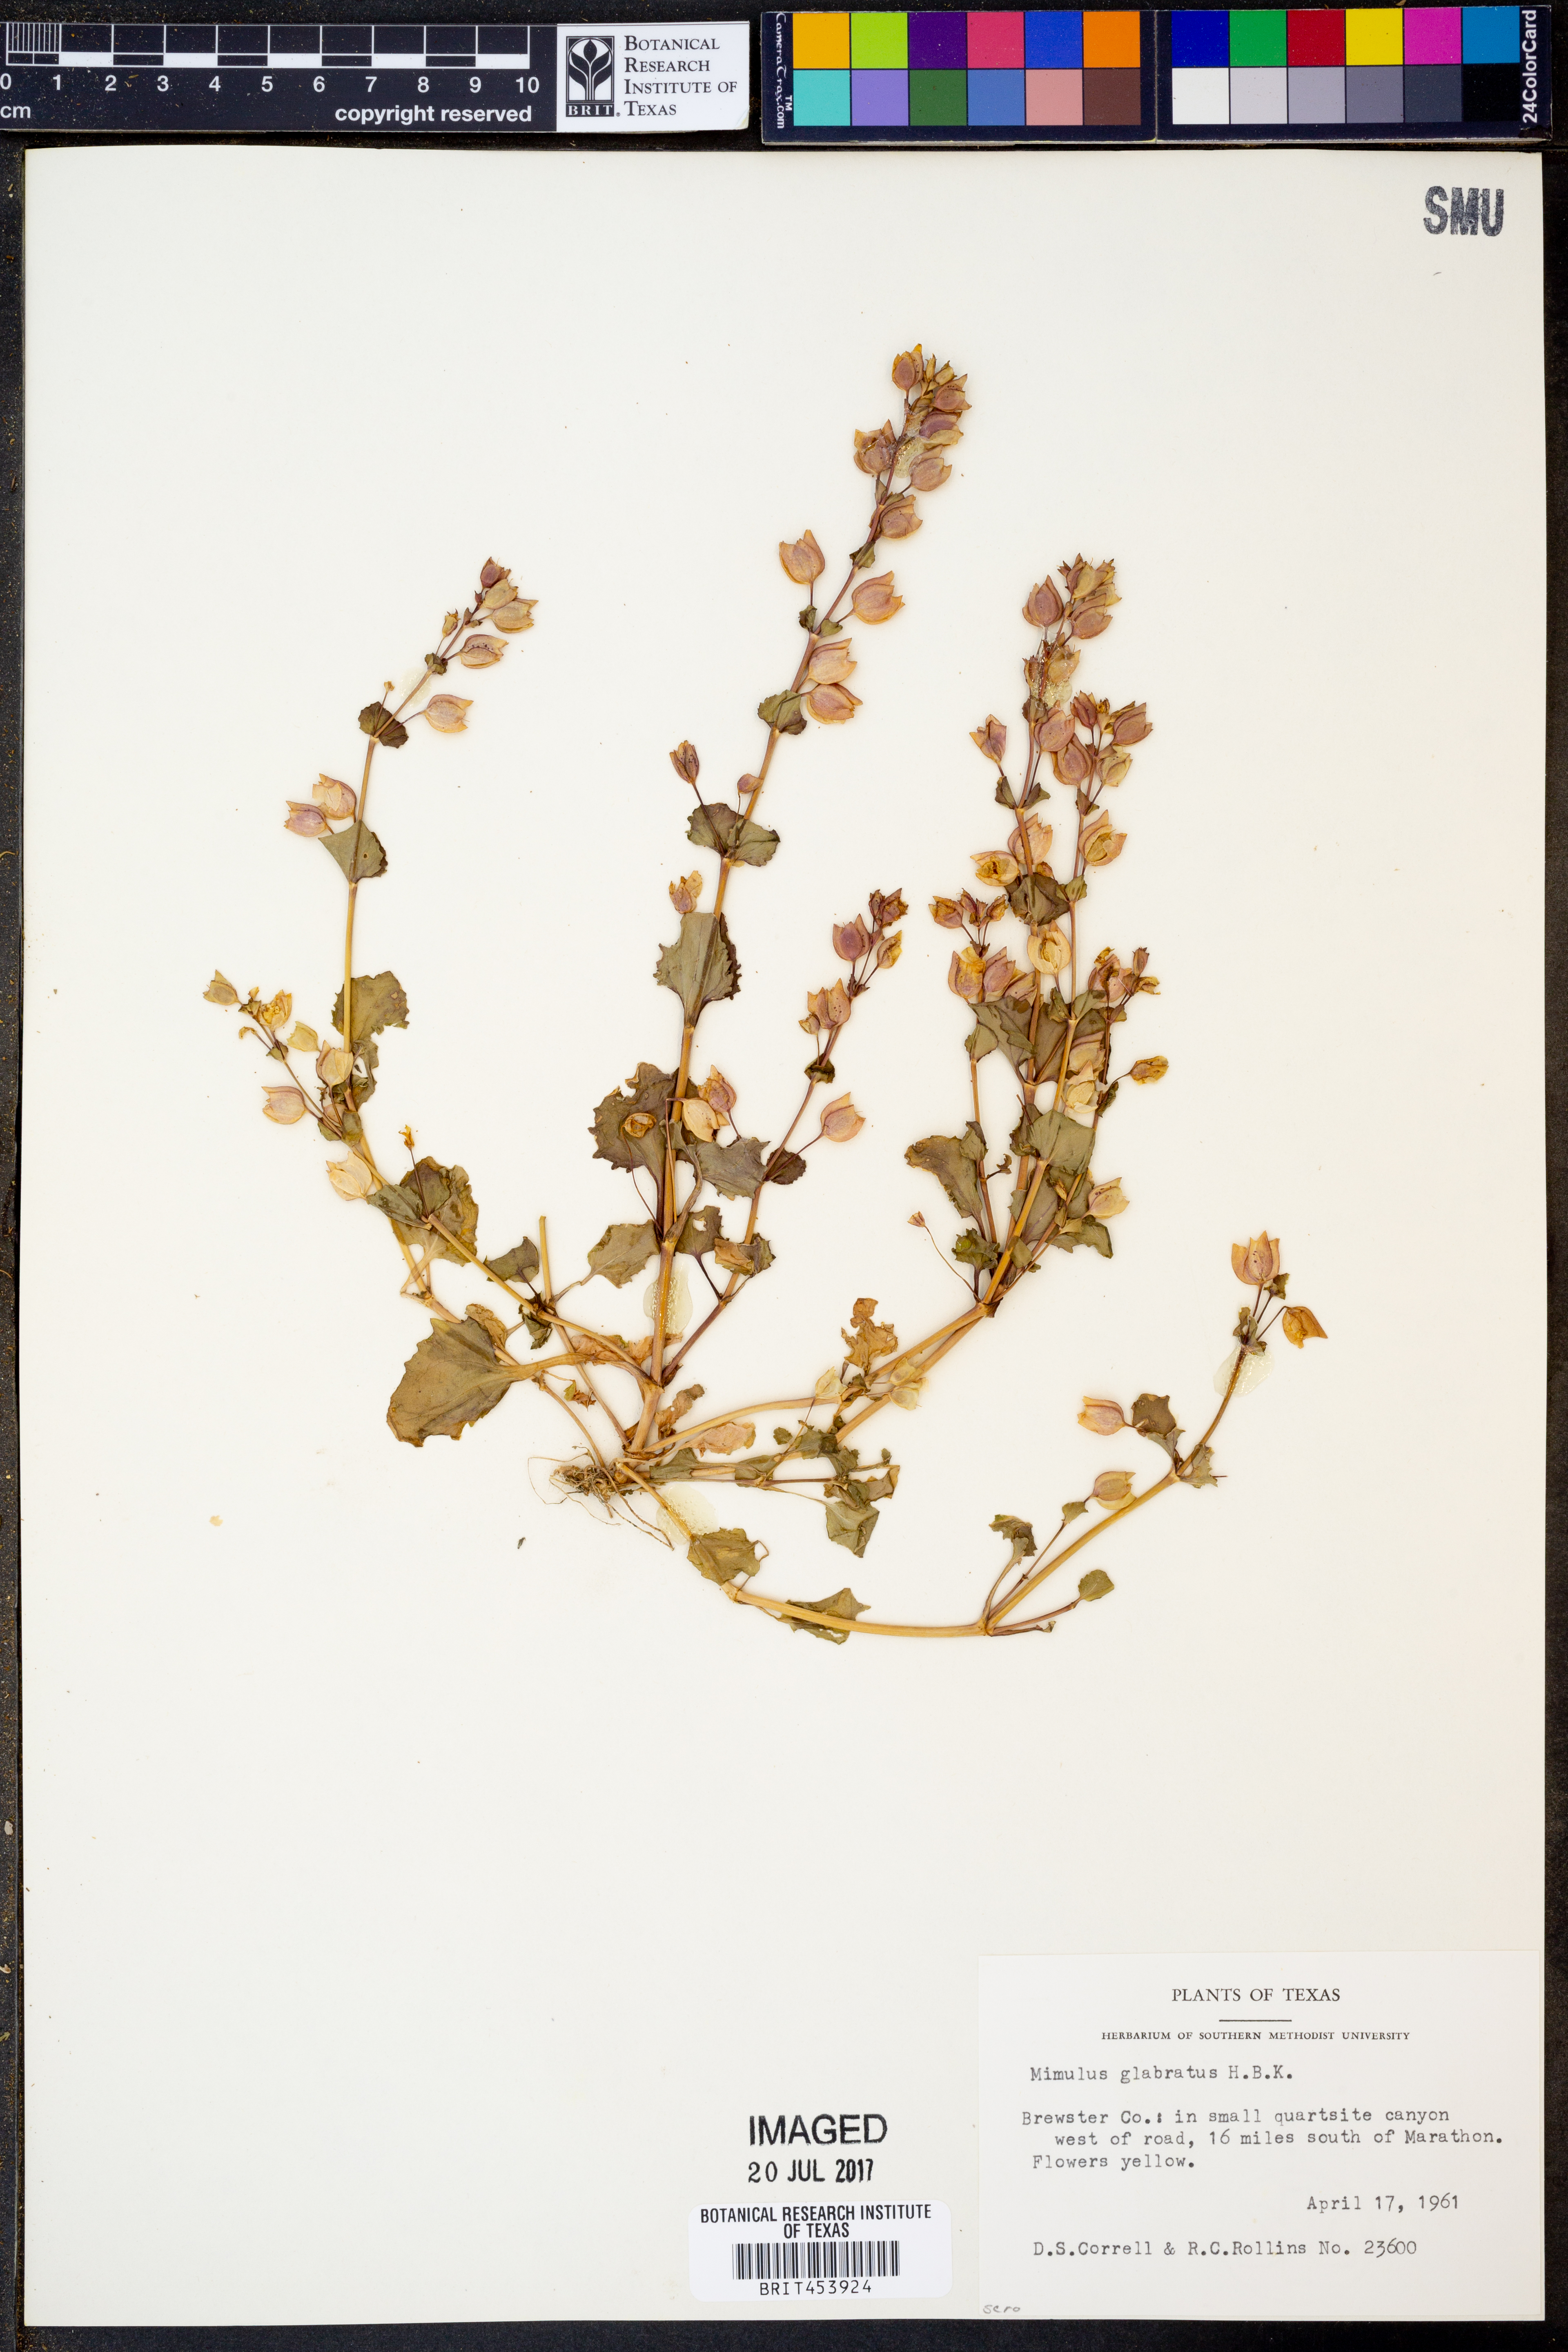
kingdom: Plantae
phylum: Tracheophyta
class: Magnoliopsida
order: Lamiales
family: Phrymaceae
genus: Erythranthe
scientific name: Erythranthe glabrata
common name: Round-leaved monkeyflower
